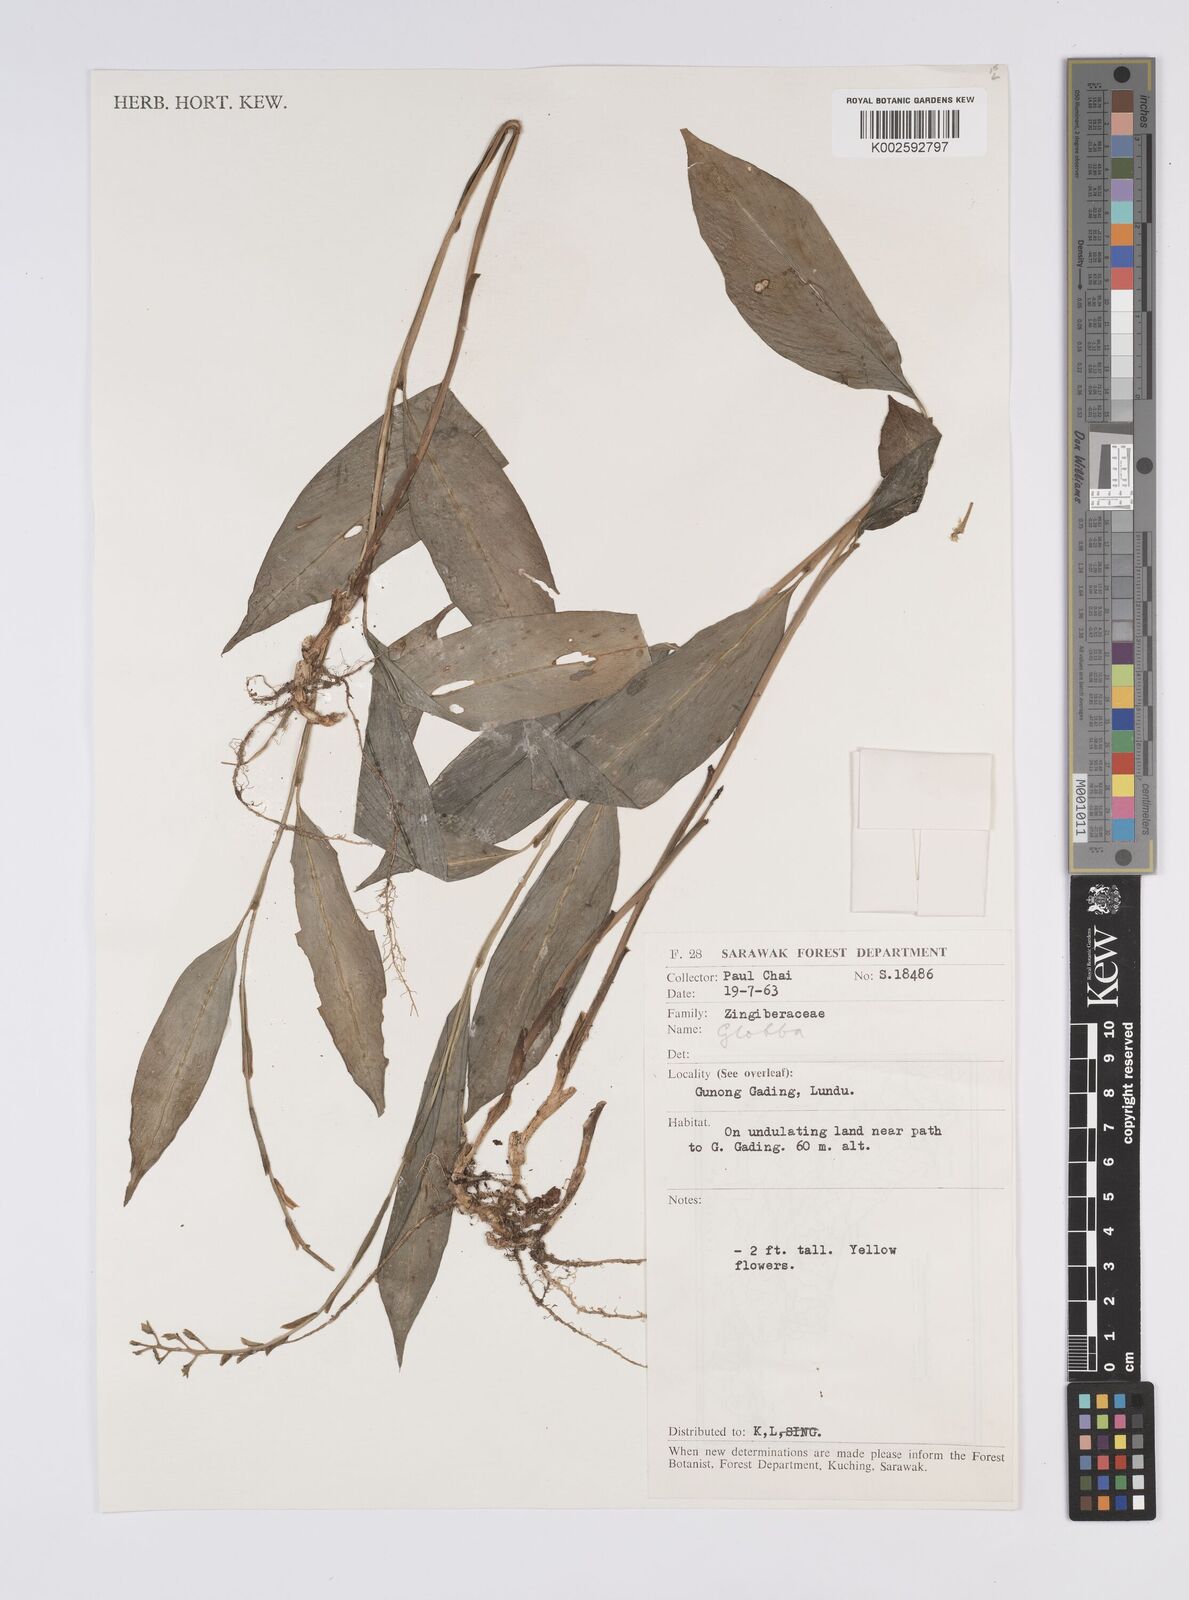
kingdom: Plantae
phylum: Tracheophyta
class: Liliopsida
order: Zingiberales
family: Zingiberaceae
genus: Globba
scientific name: Globba atrosanguinea
